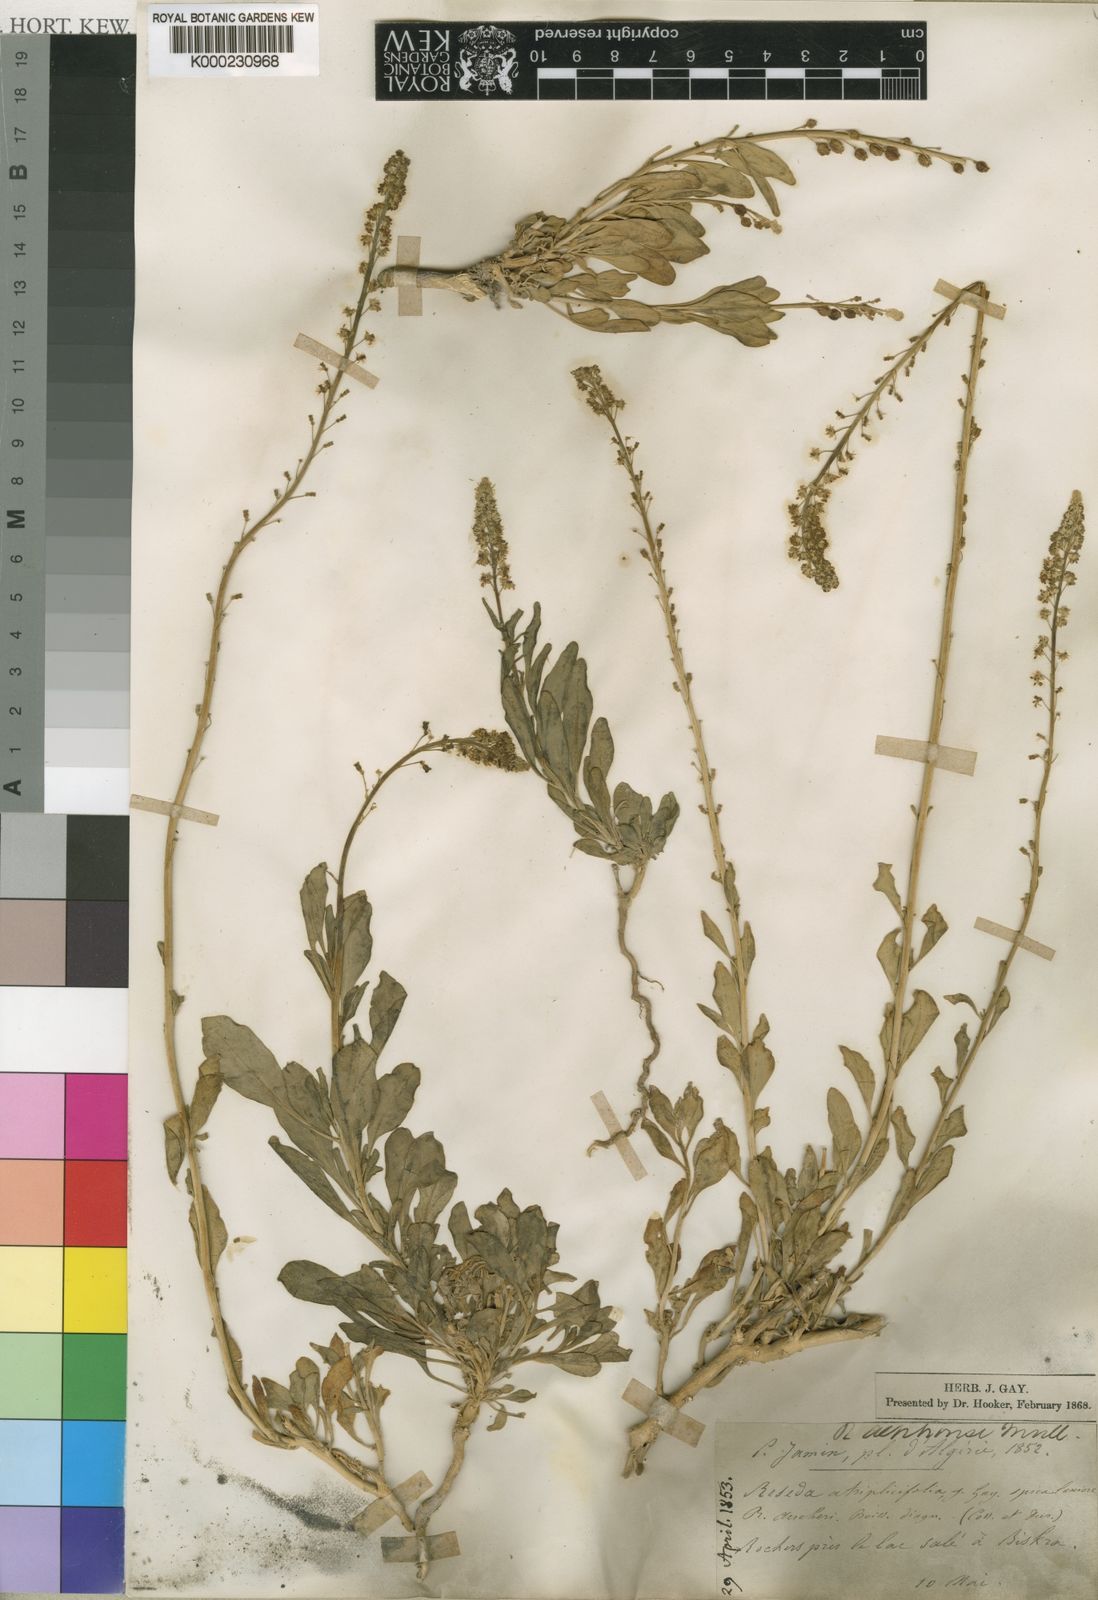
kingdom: Plantae
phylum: Tracheophyta
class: Magnoliopsida
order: Brassicales
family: Resedaceae
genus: Reseda
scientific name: Reseda
